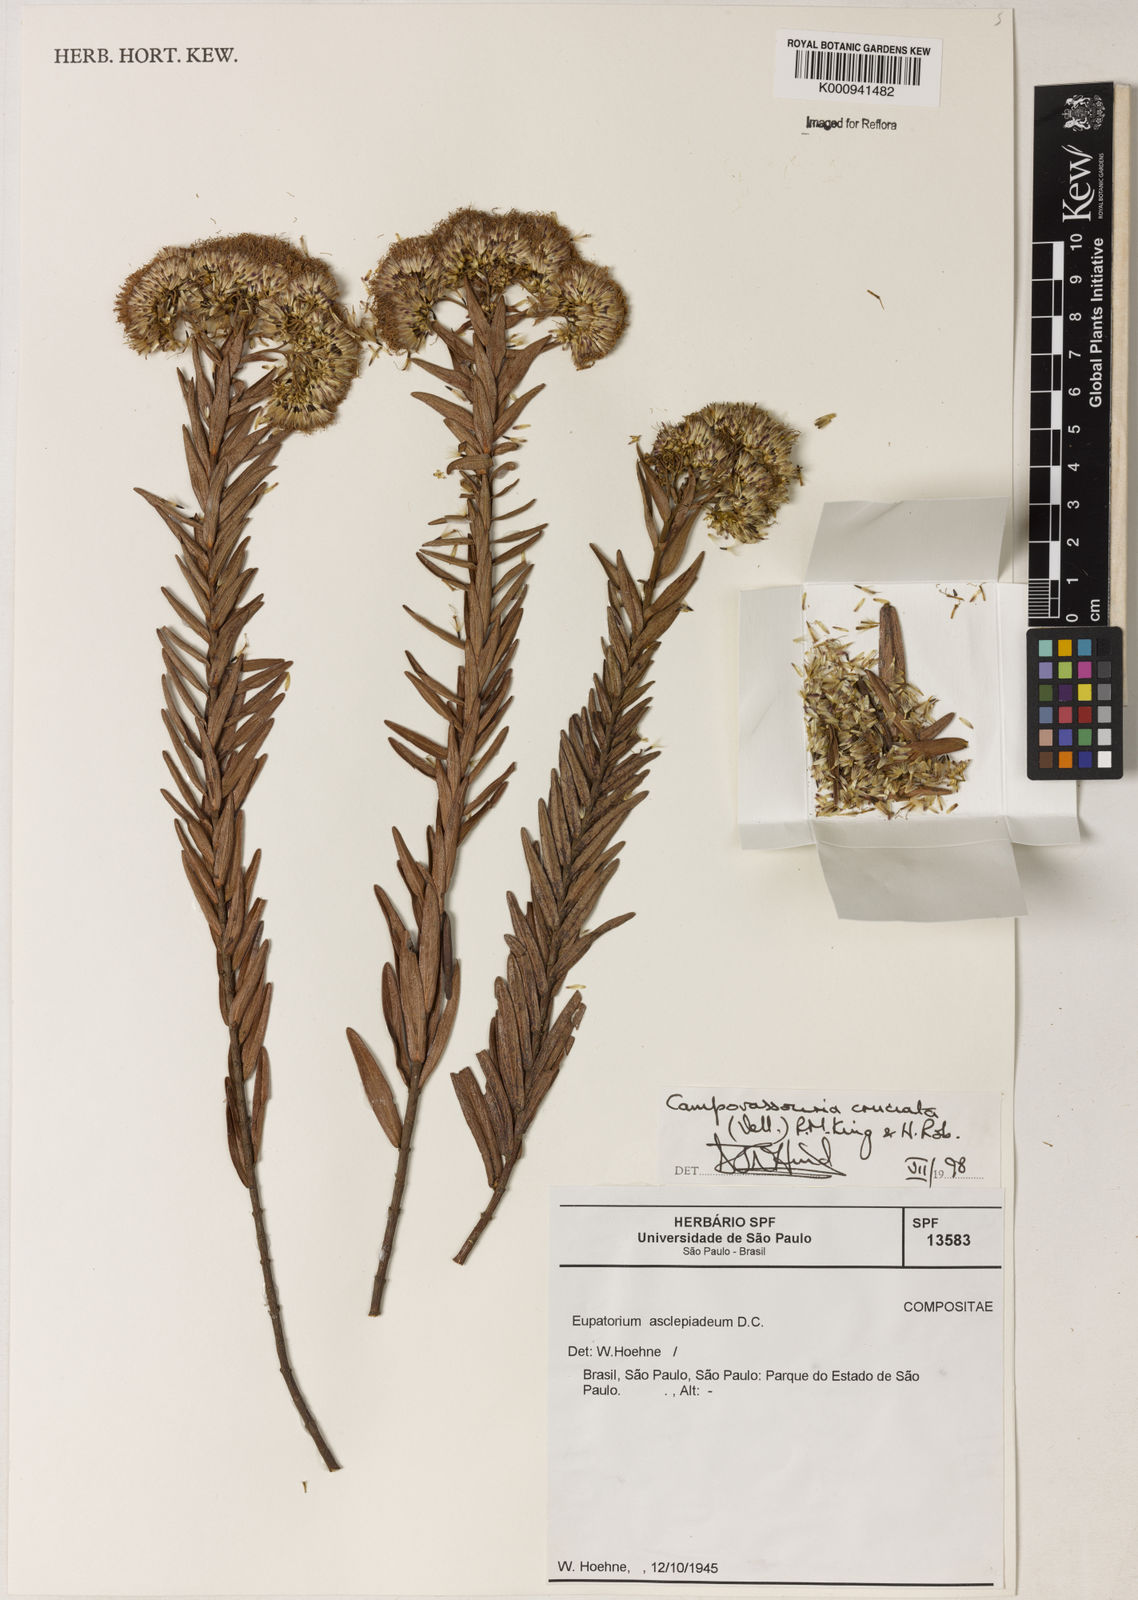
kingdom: Plantae
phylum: Tracheophyta
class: Magnoliopsida
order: Asterales
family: Asteraceae
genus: Campovassouria
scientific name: Campovassouria cruciata
